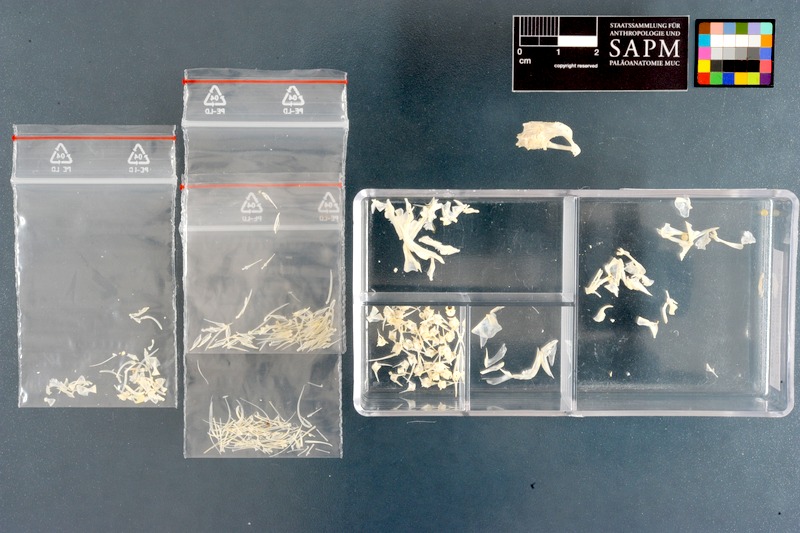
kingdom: Animalia
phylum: Chordata
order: Perciformes
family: Clinidae
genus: Clinus
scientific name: Clinus cottoides
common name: Bluntnose klipfish
